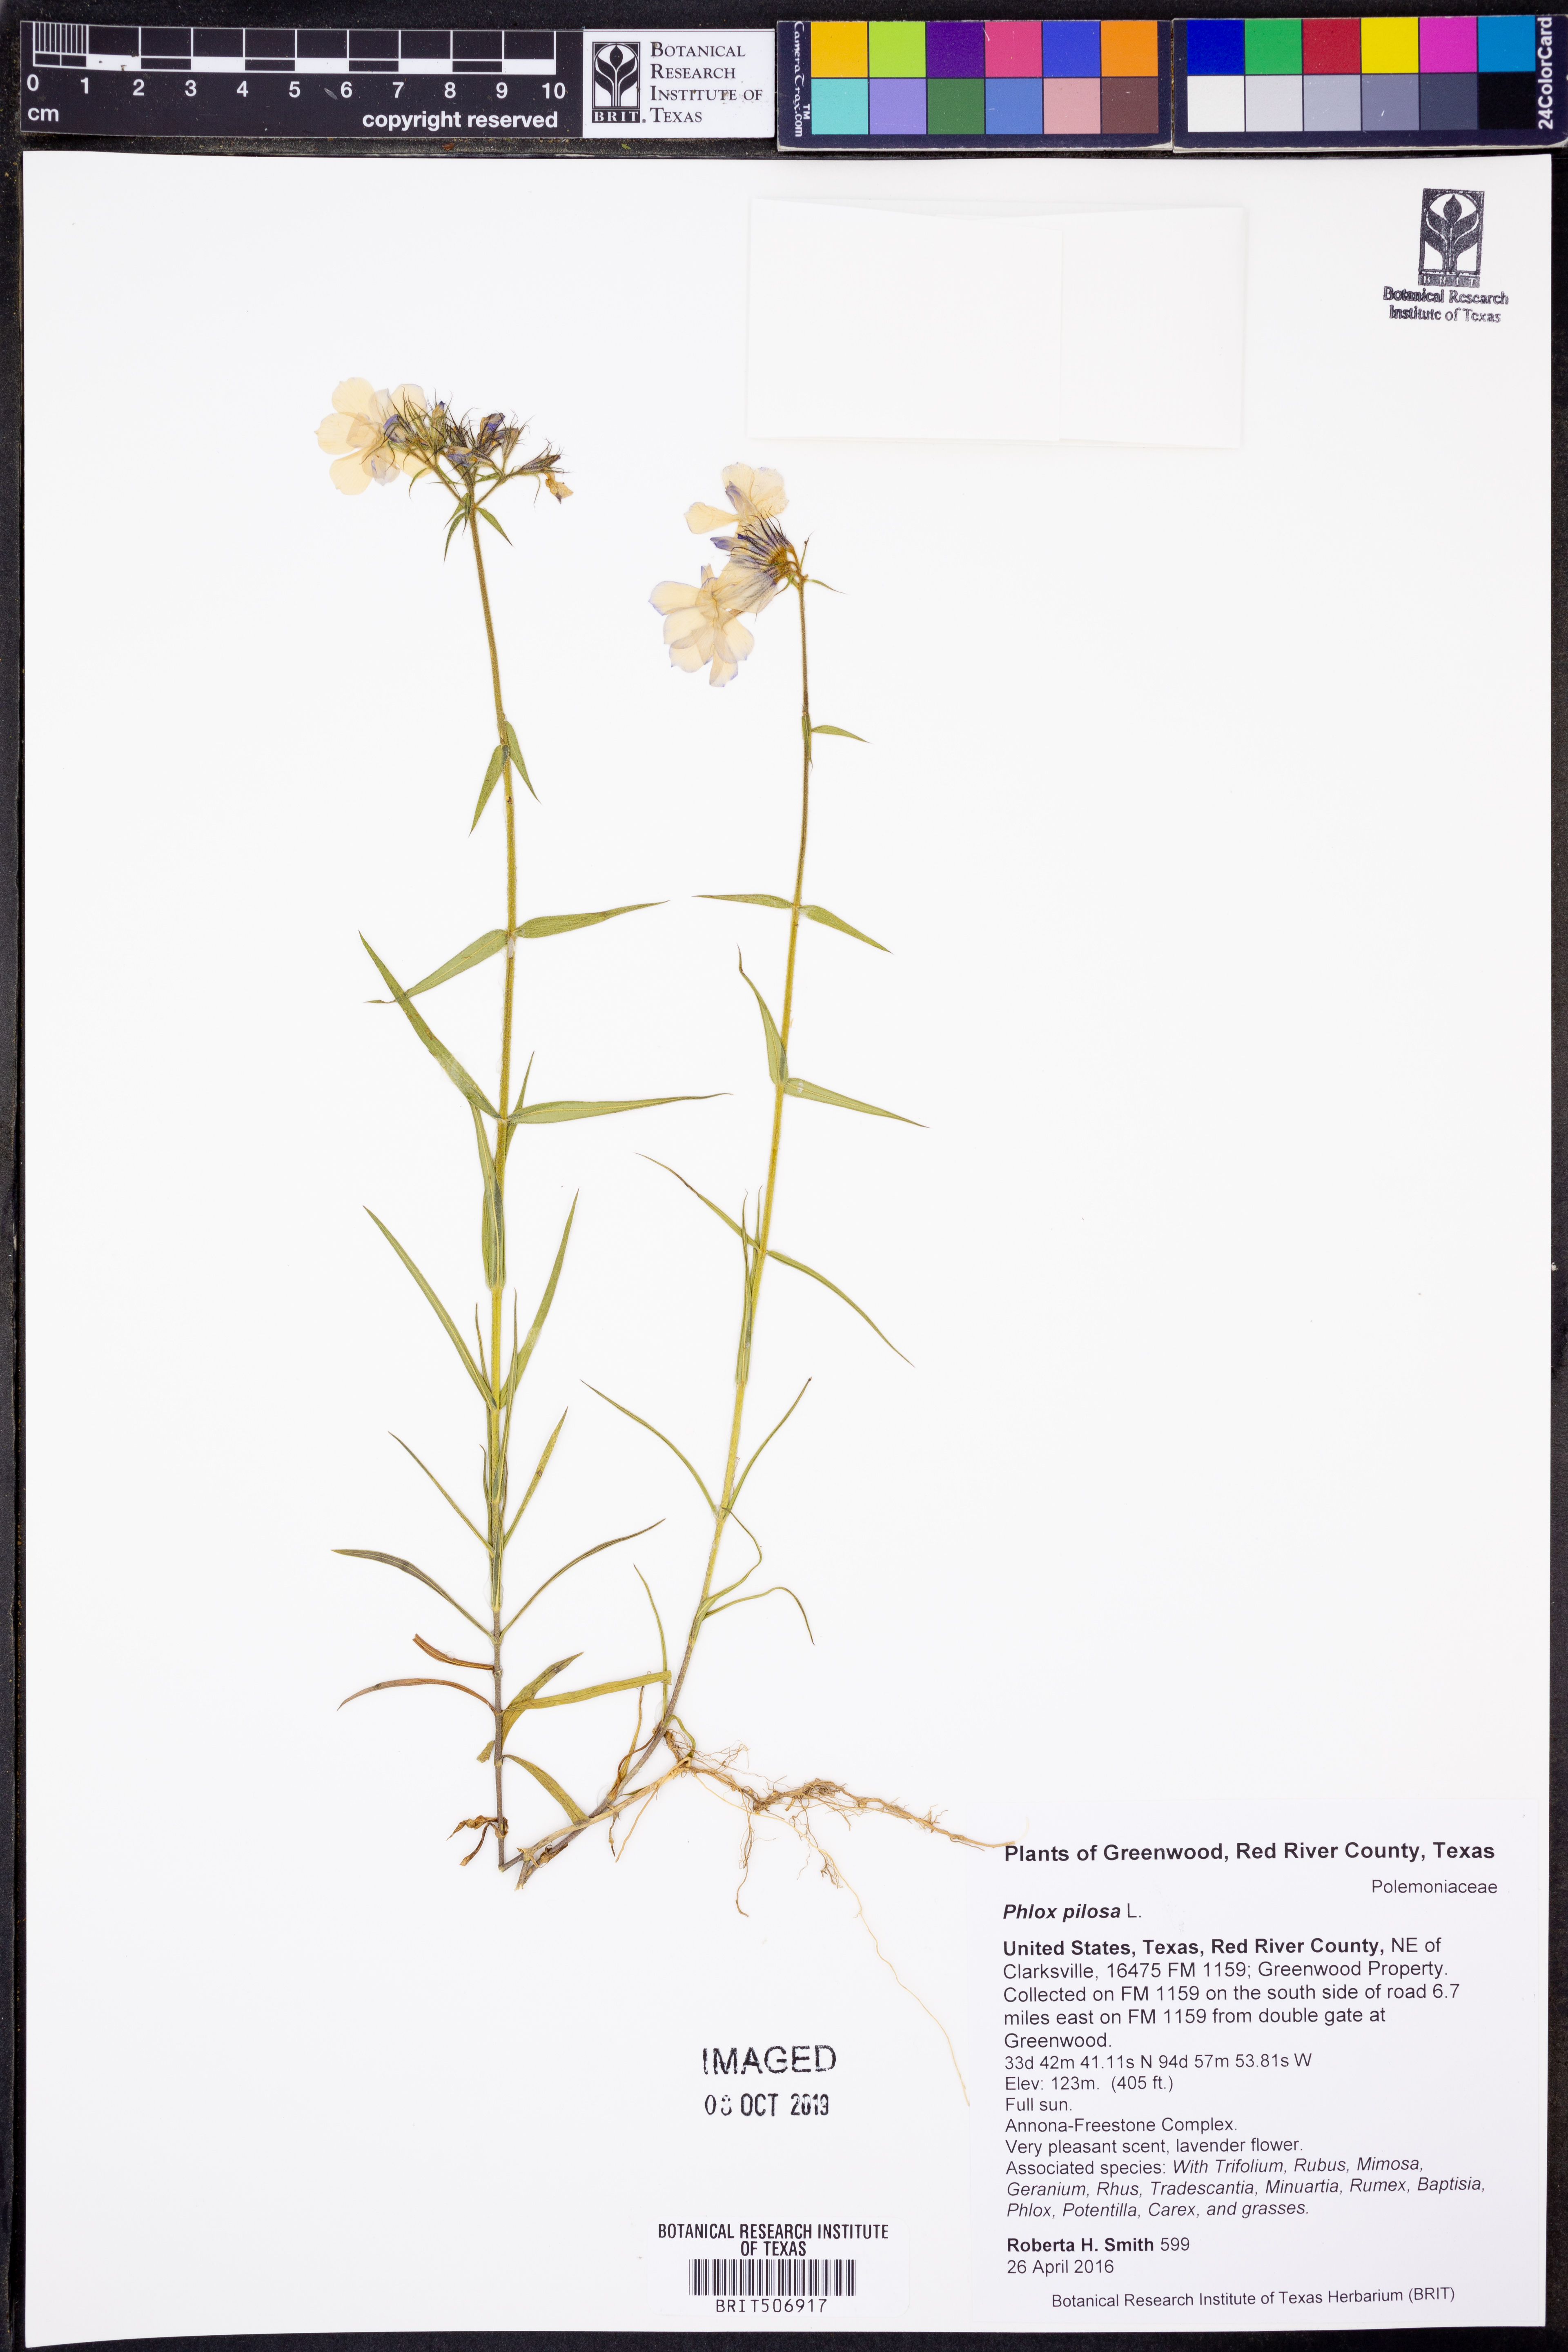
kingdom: Plantae
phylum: Tracheophyta
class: Magnoliopsida
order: Ericales
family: Polemoniaceae
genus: Phlox
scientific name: Phlox pilosa
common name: Prairie phlox
